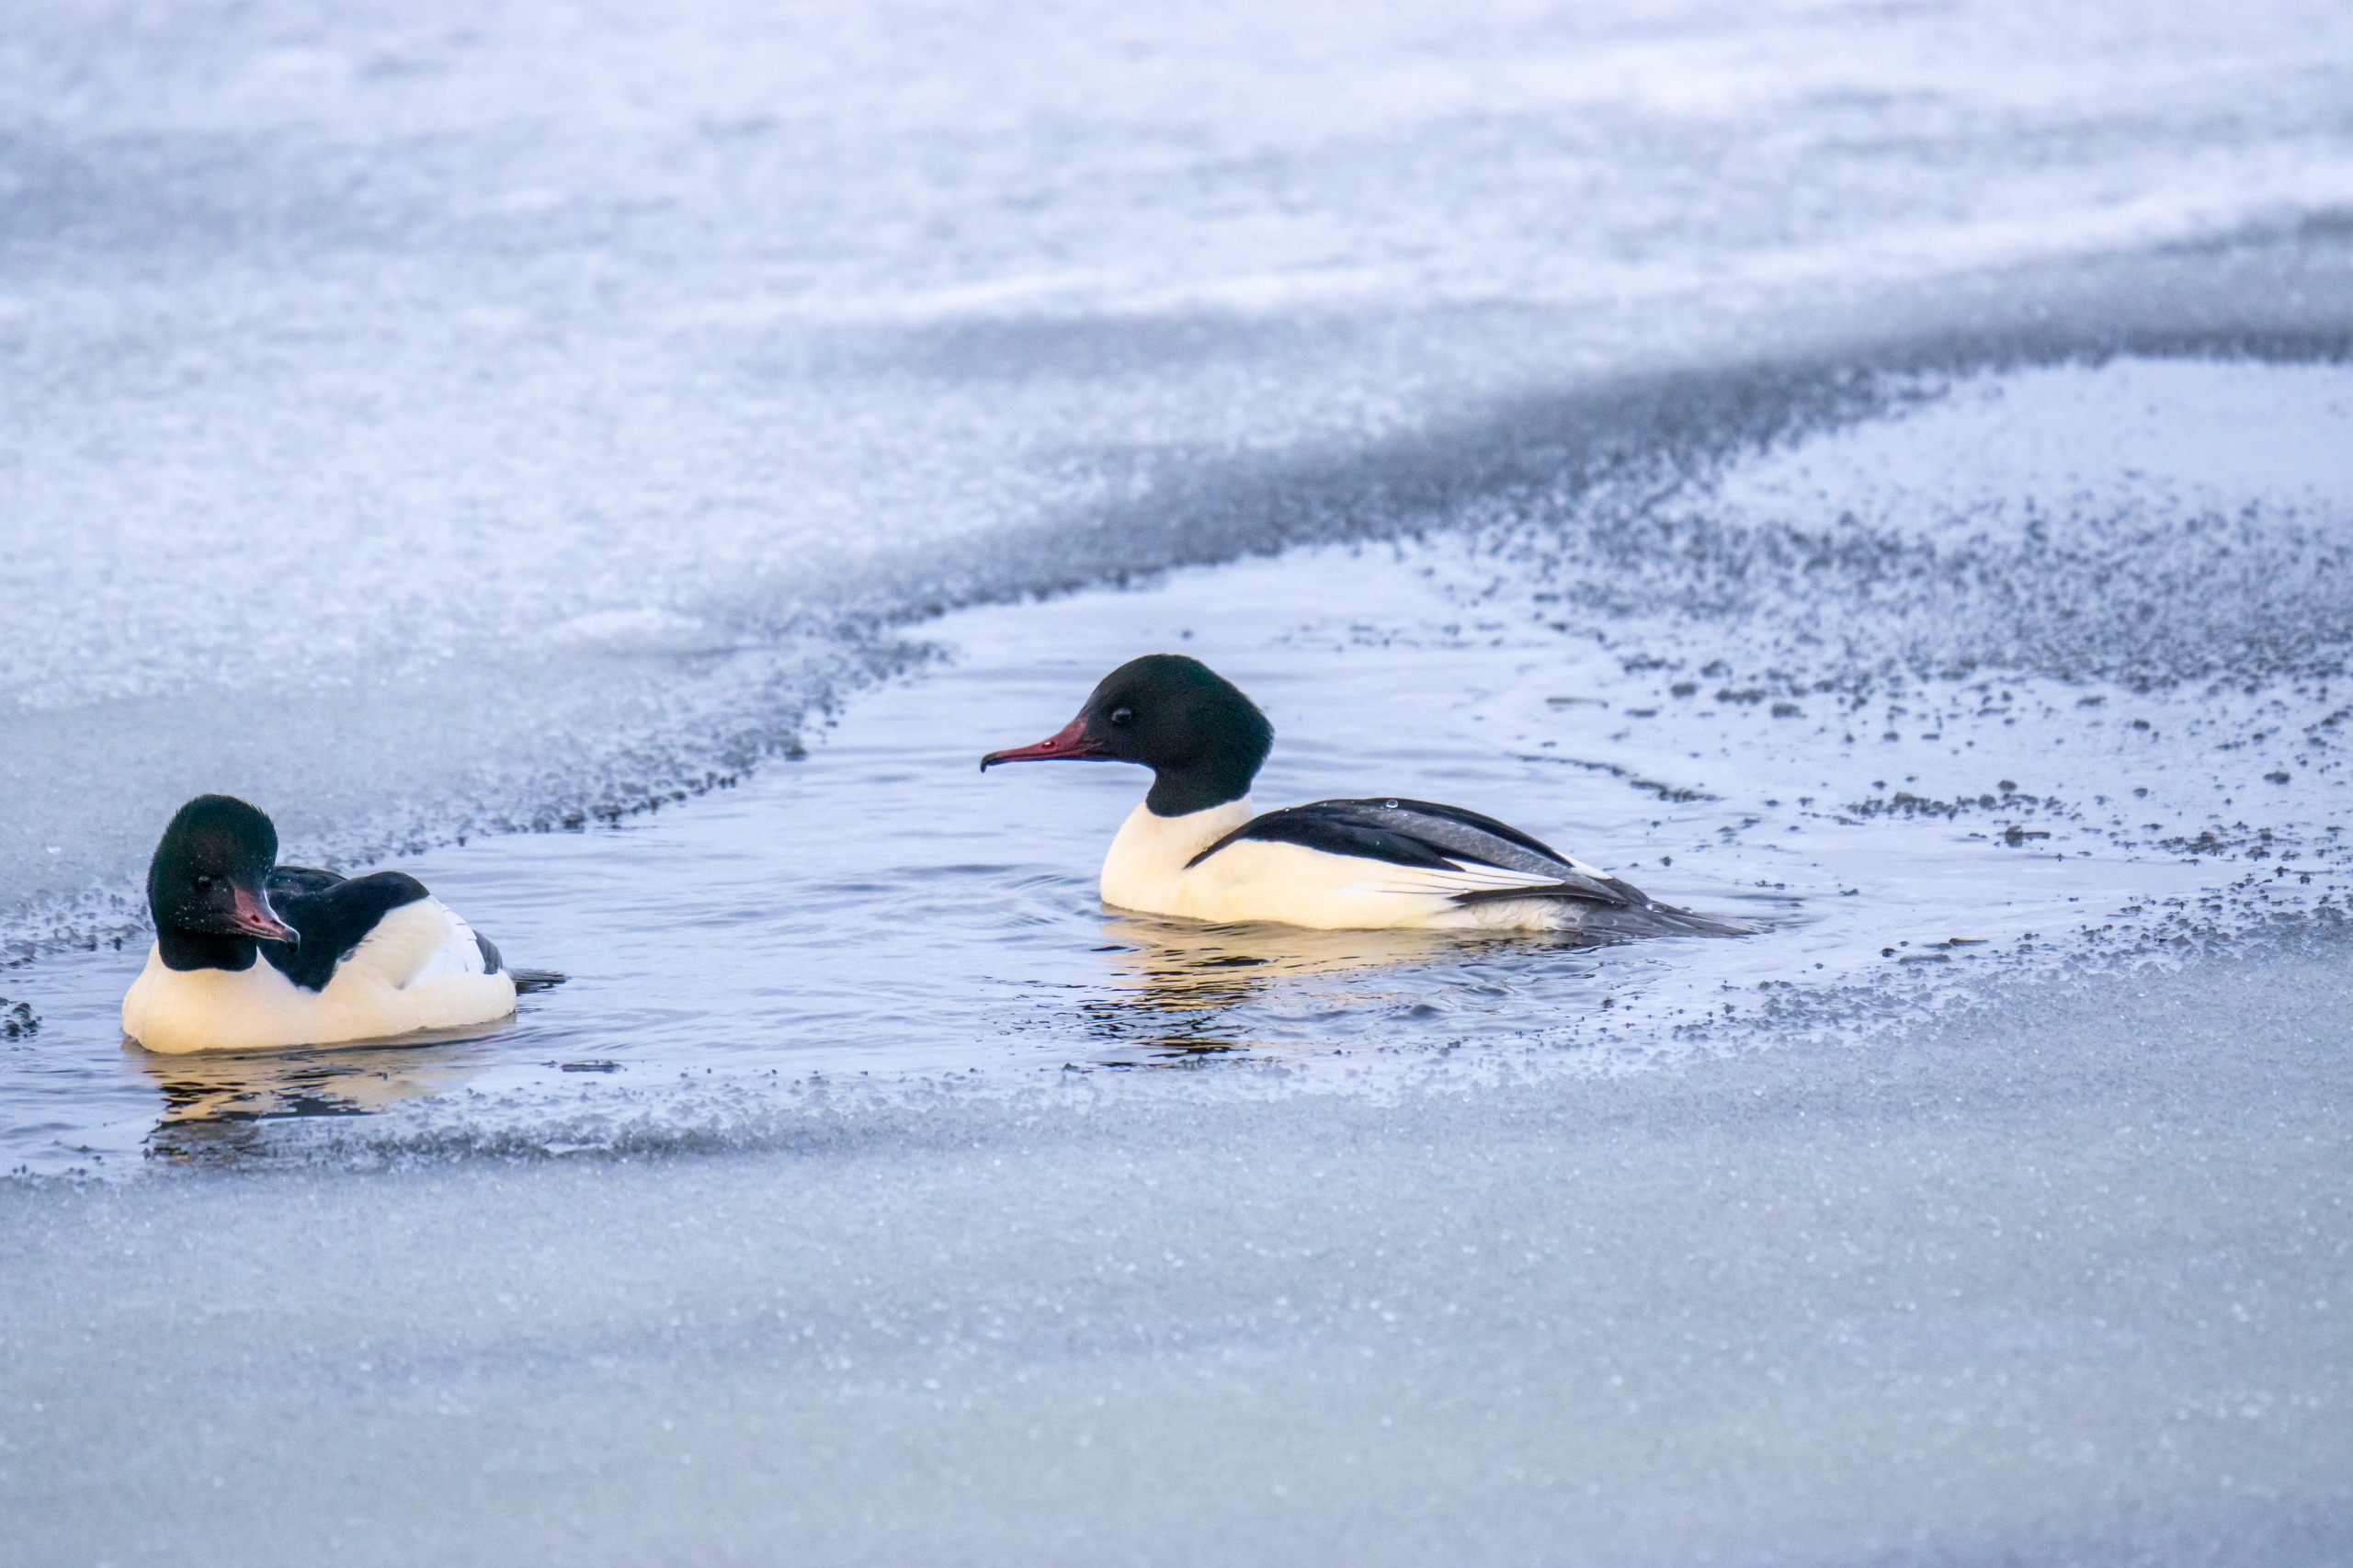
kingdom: Animalia
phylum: Chordata
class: Aves
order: Anseriformes
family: Anatidae
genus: Mergus
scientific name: Mergus merganser
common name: Stor skallesluger
